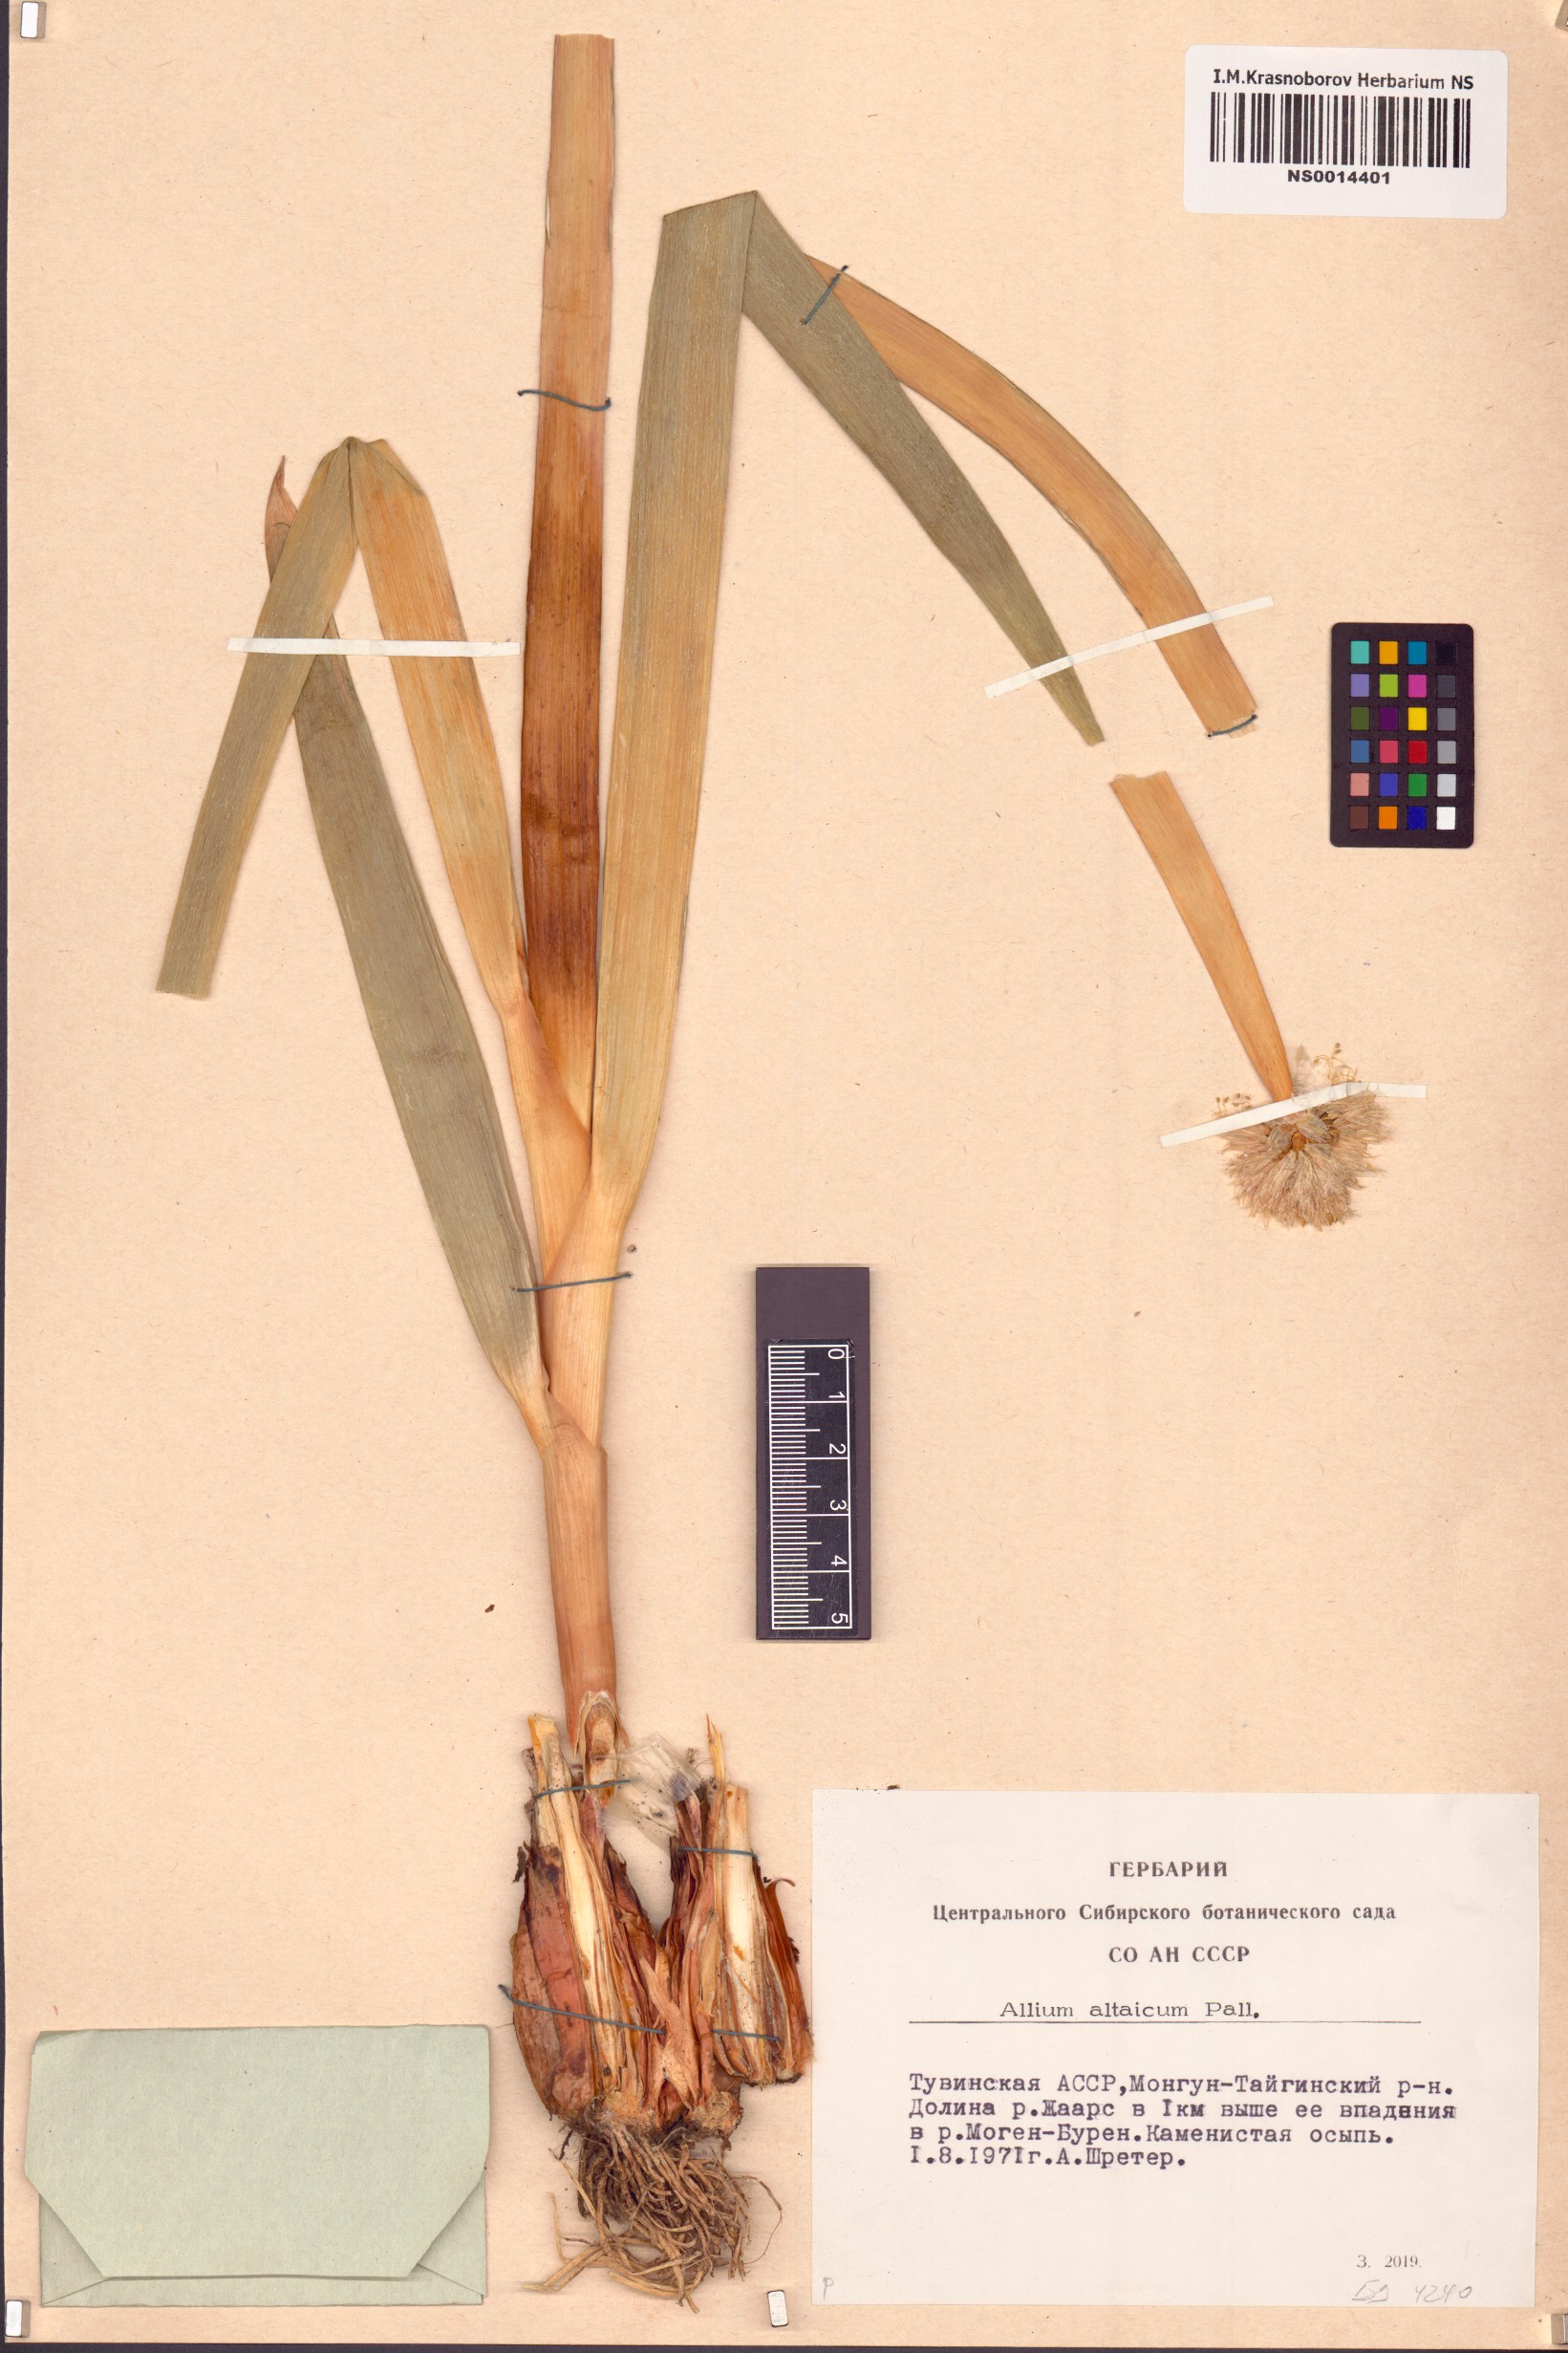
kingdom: Plantae
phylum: Tracheophyta
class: Liliopsida
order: Asparagales
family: Amaryllidaceae
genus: Allium
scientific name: Allium altaicum
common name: Altai onion
